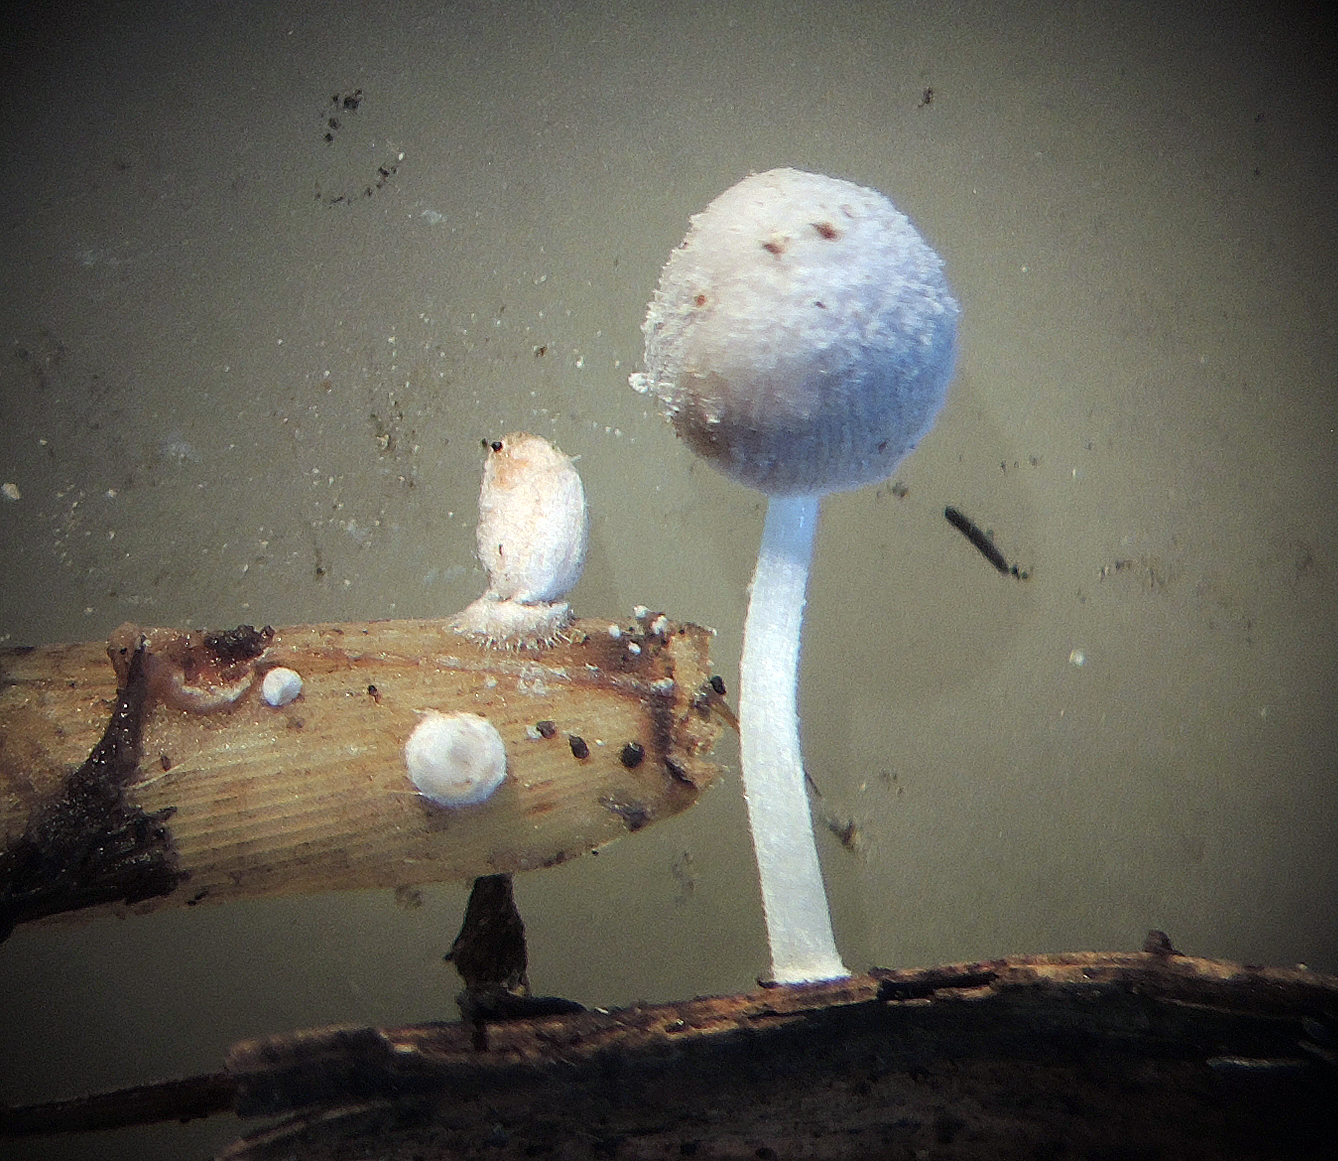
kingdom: Fungi
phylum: Basidiomycota
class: Agaricomycetes
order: Agaricales
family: Psathyrellaceae
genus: Coprinopsis
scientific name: Coprinopsis urticicola
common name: urte-blækhat
